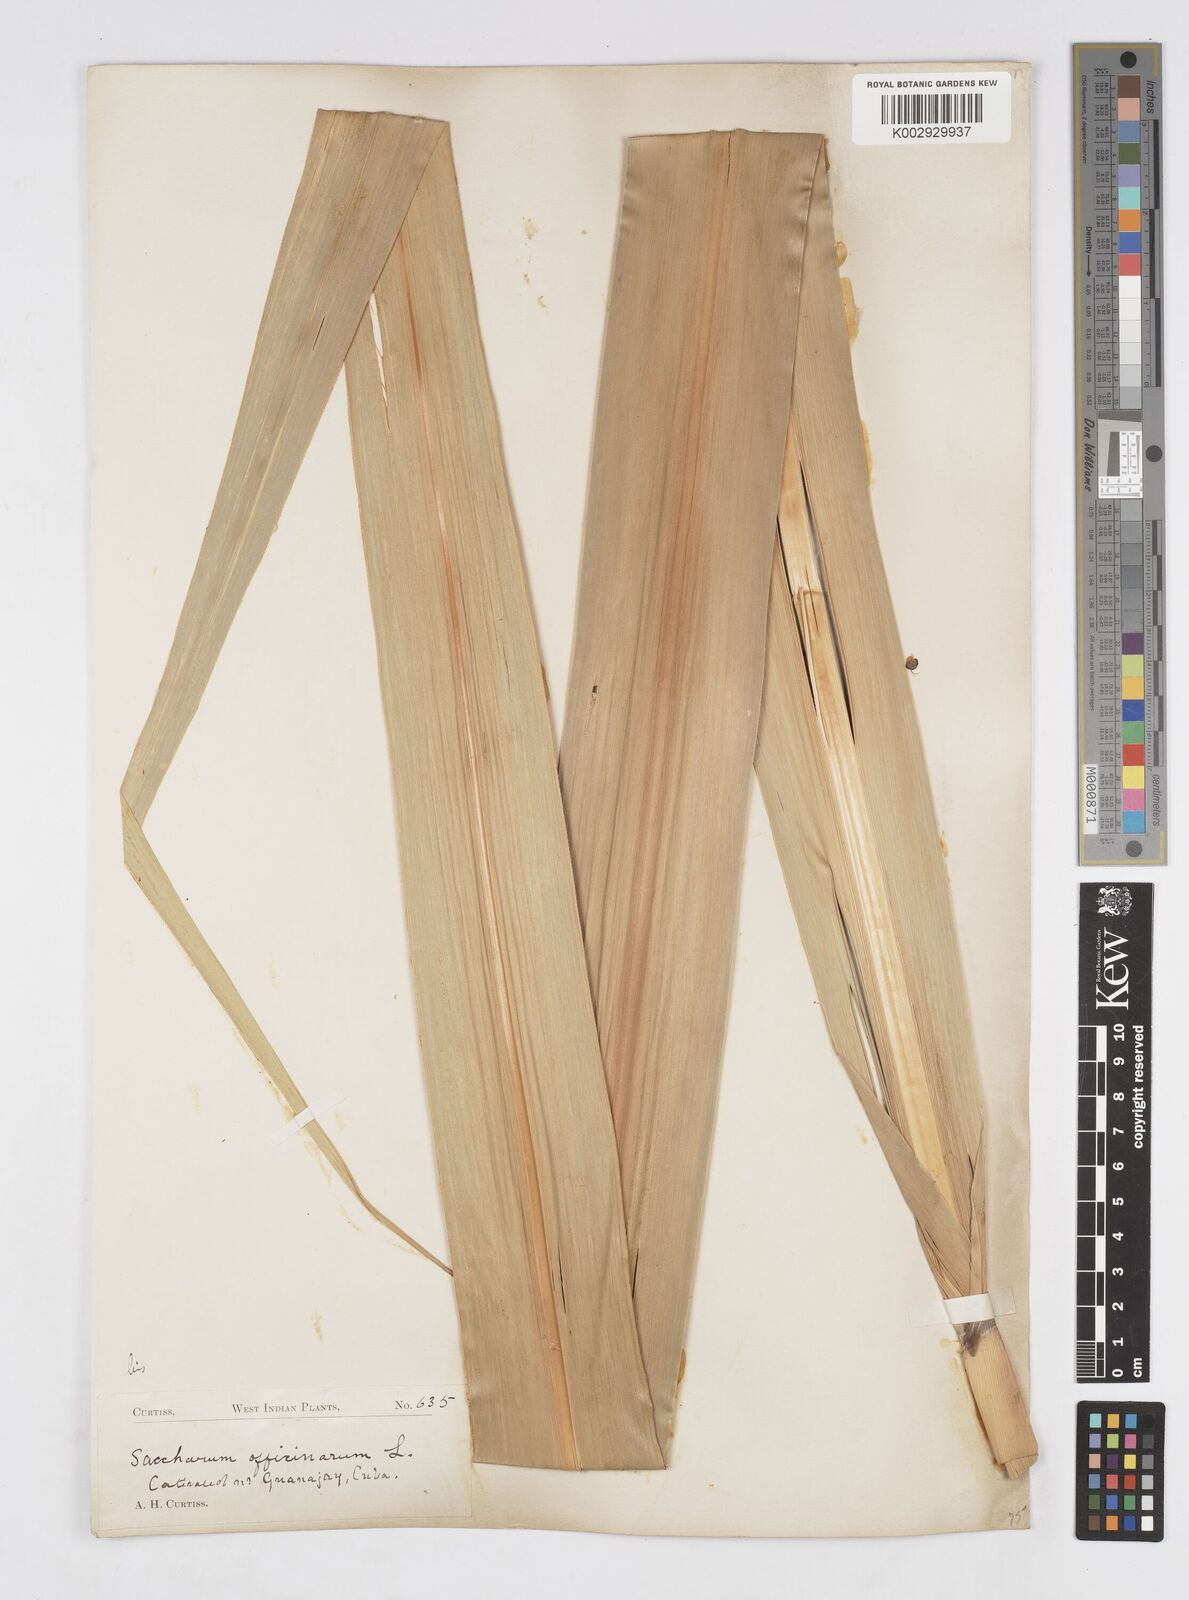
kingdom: Plantae
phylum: Tracheophyta
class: Liliopsida
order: Poales
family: Poaceae
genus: Saccharum
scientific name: Saccharum officinarum
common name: Sugarcane
